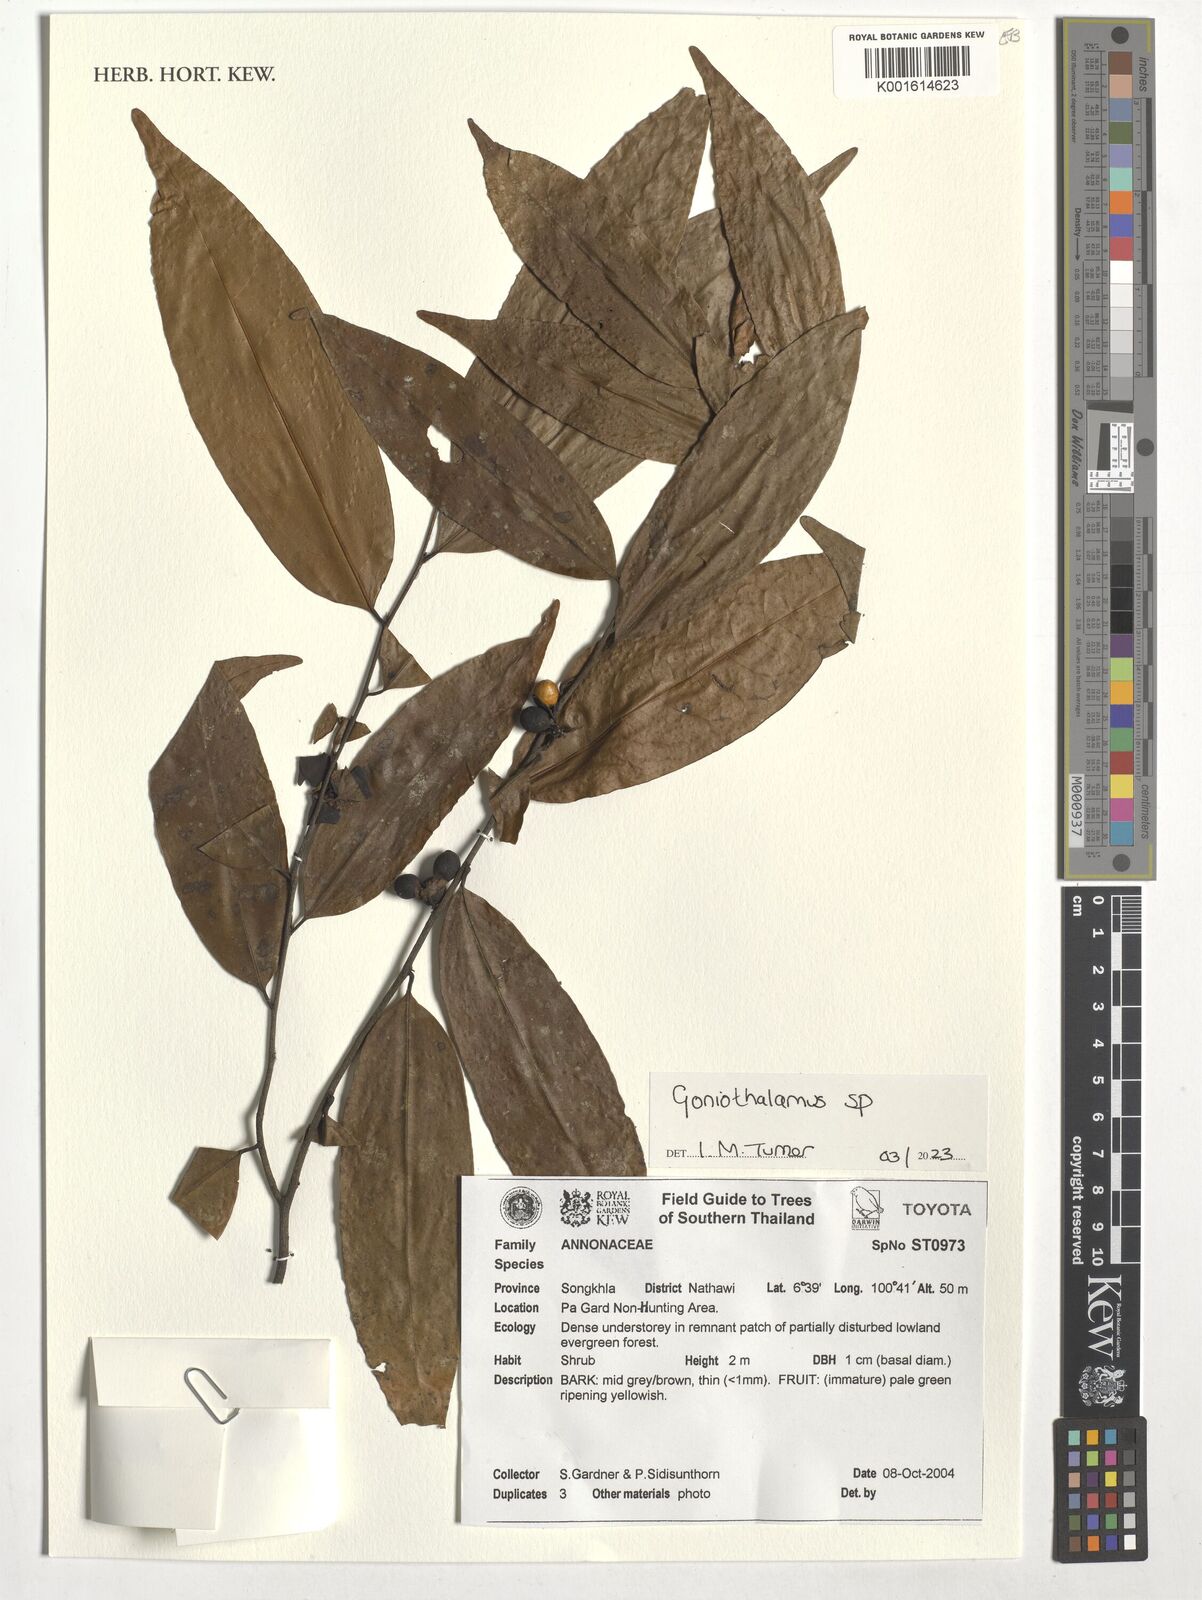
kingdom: Plantae
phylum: Tracheophyta
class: Magnoliopsida
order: Magnoliales
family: Annonaceae
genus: Goniothalamus
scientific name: Goniothalamus
